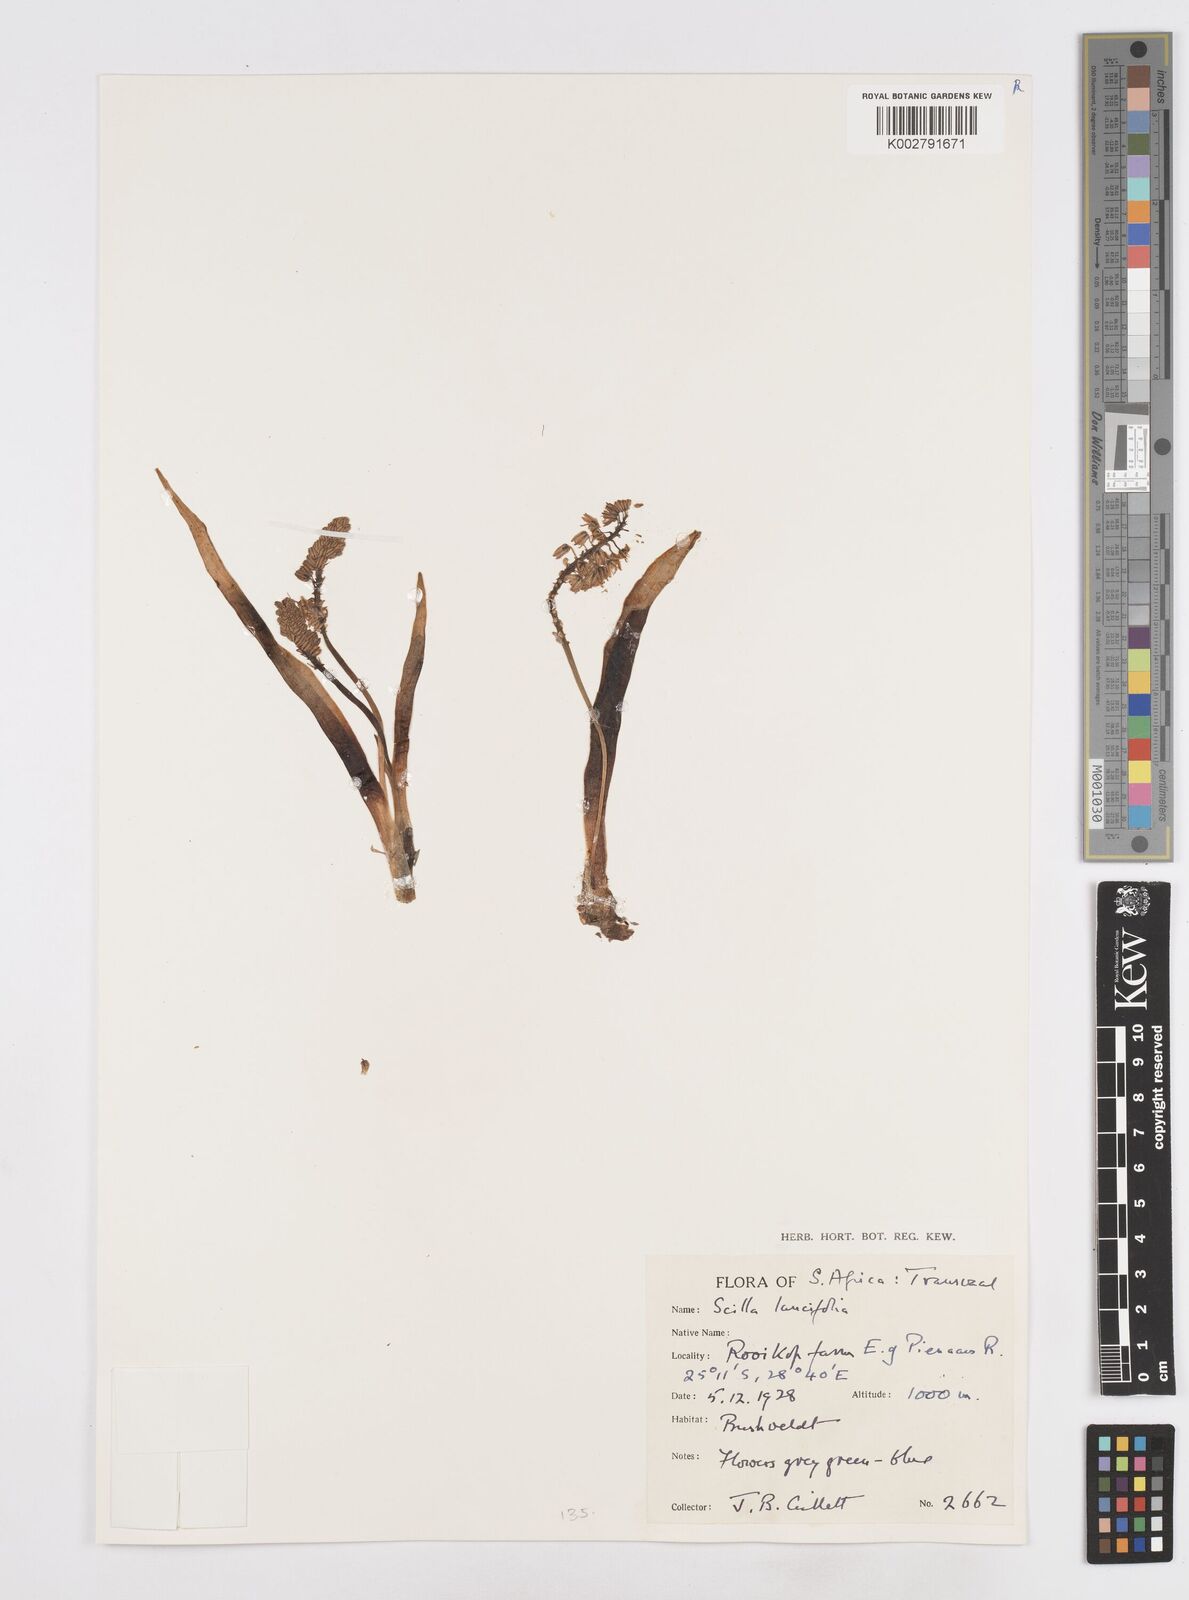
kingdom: Plantae
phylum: Tracheophyta
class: Liliopsida
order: Asparagales
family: Asparagaceae
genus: Scilla
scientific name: Scilla
